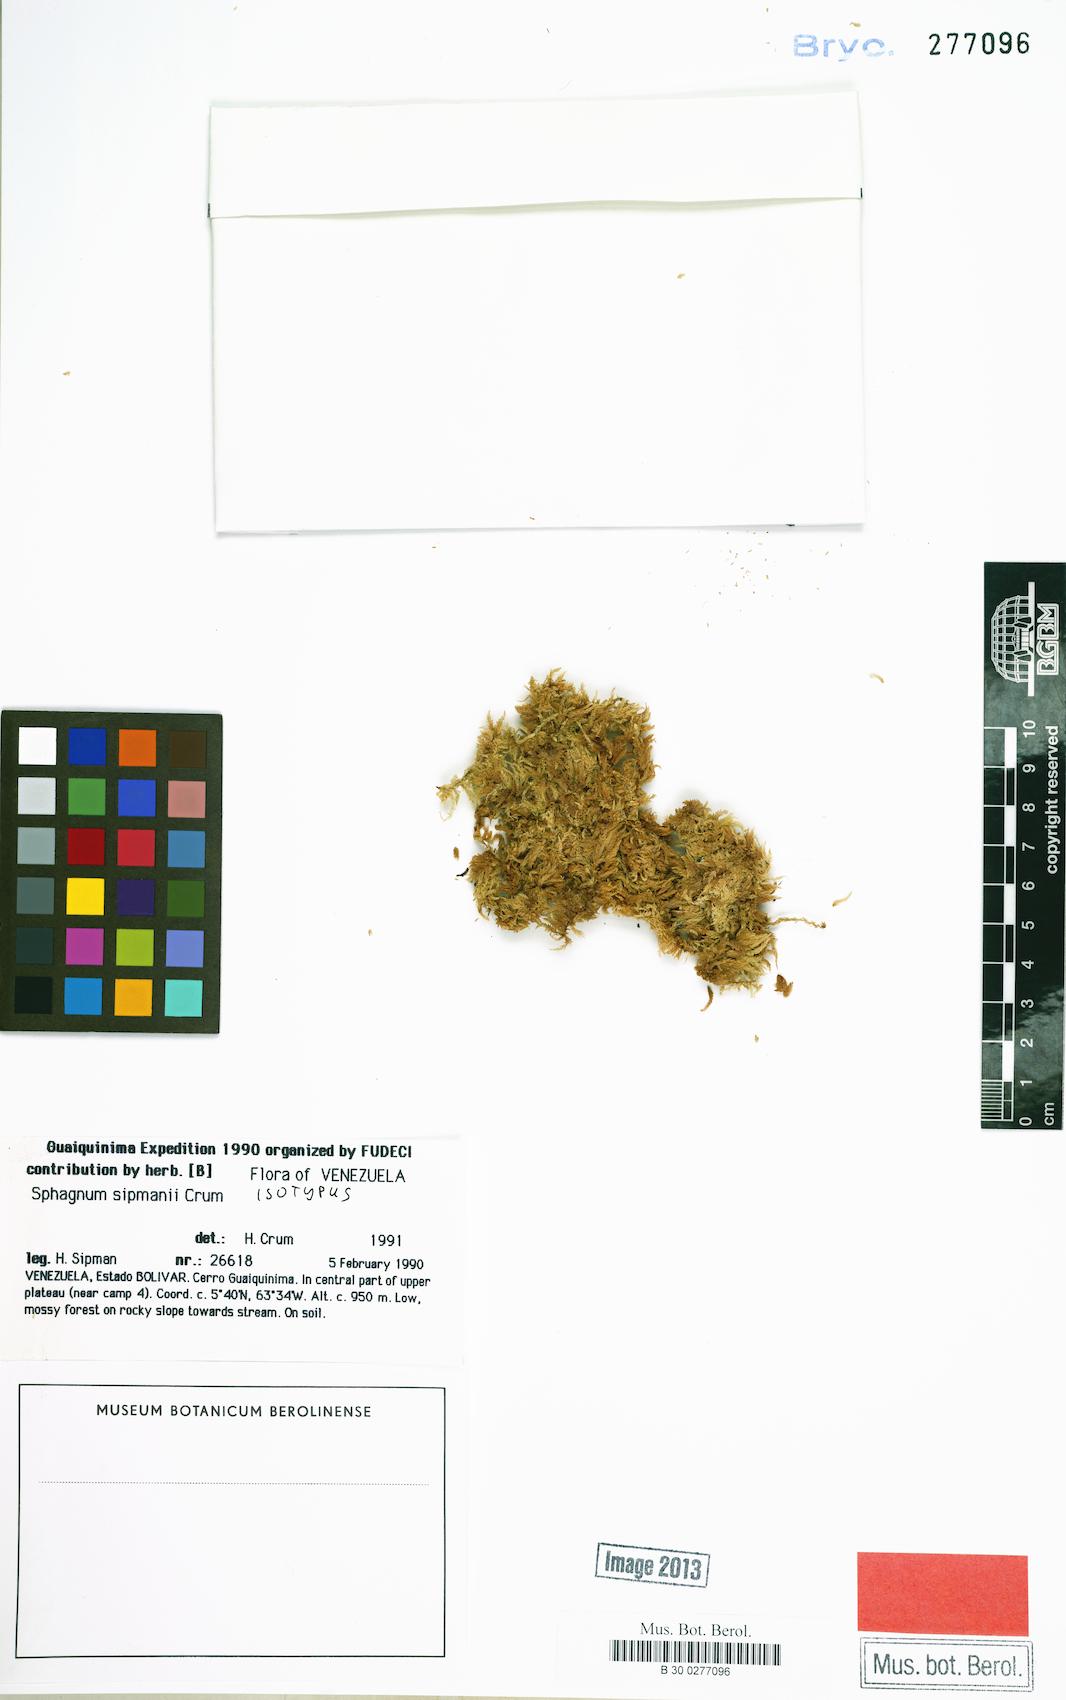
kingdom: Plantae
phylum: Bryophyta
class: Sphagnopsida
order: Sphagnales
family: Sphagnaceae
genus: Sphagnum
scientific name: Sphagnum sipmanii
